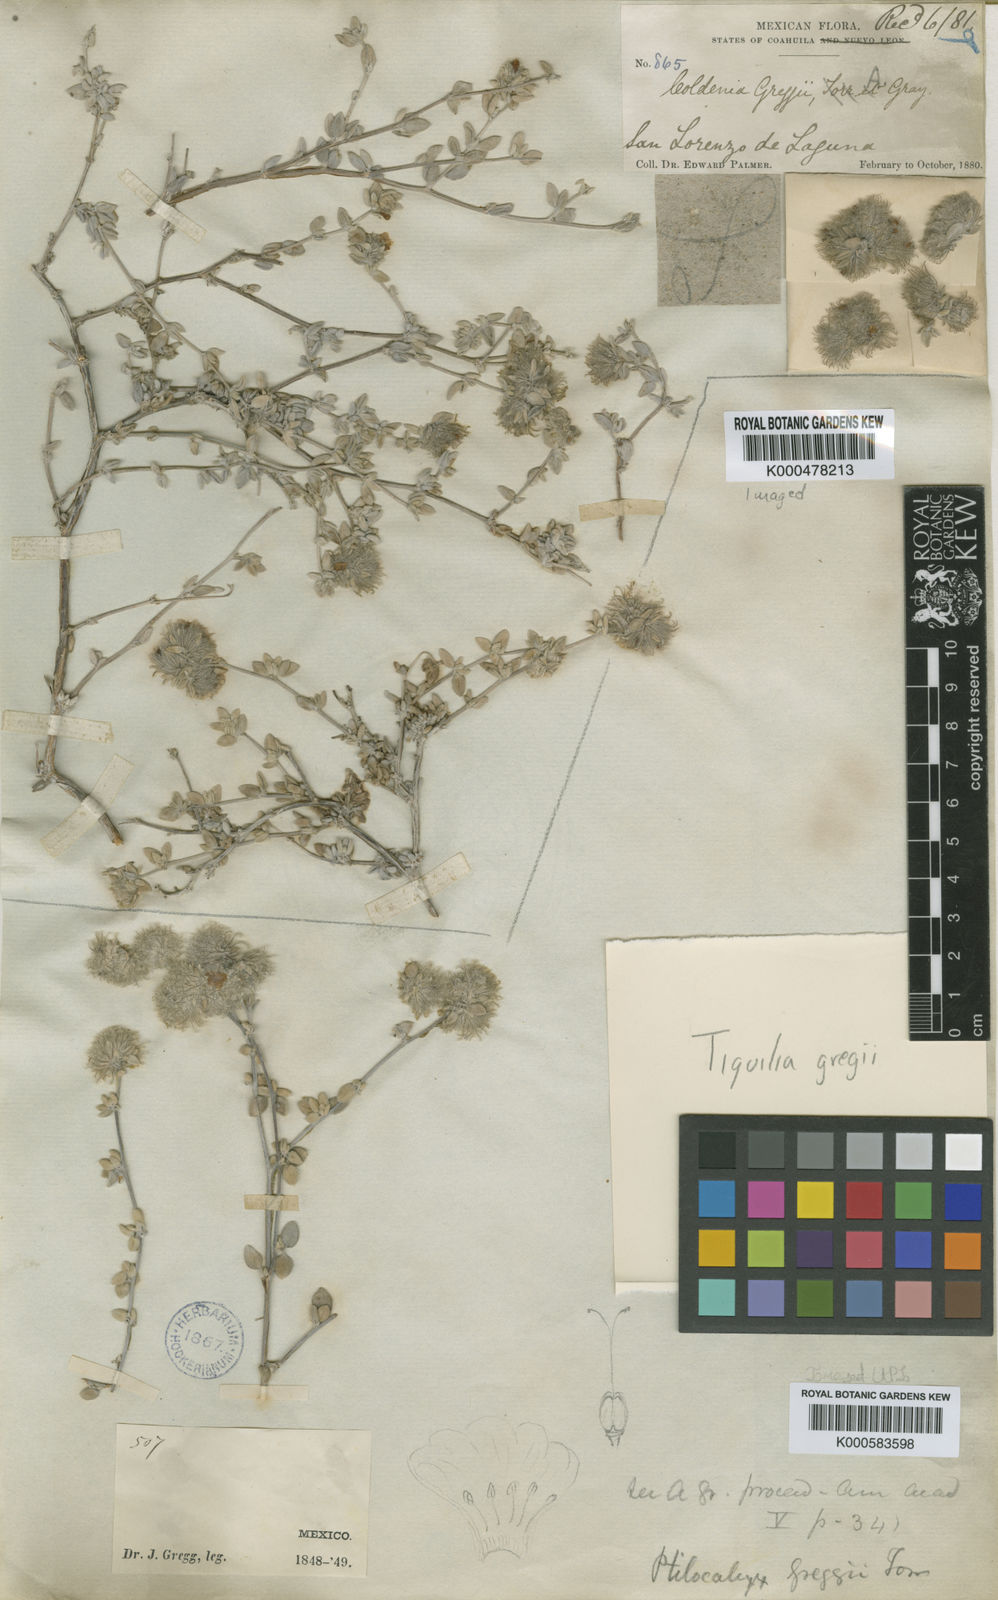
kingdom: Plantae
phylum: Tracheophyta
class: Magnoliopsida
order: Boraginales
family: Ehretiaceae
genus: Tiquilia
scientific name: Tiquilia greggii
